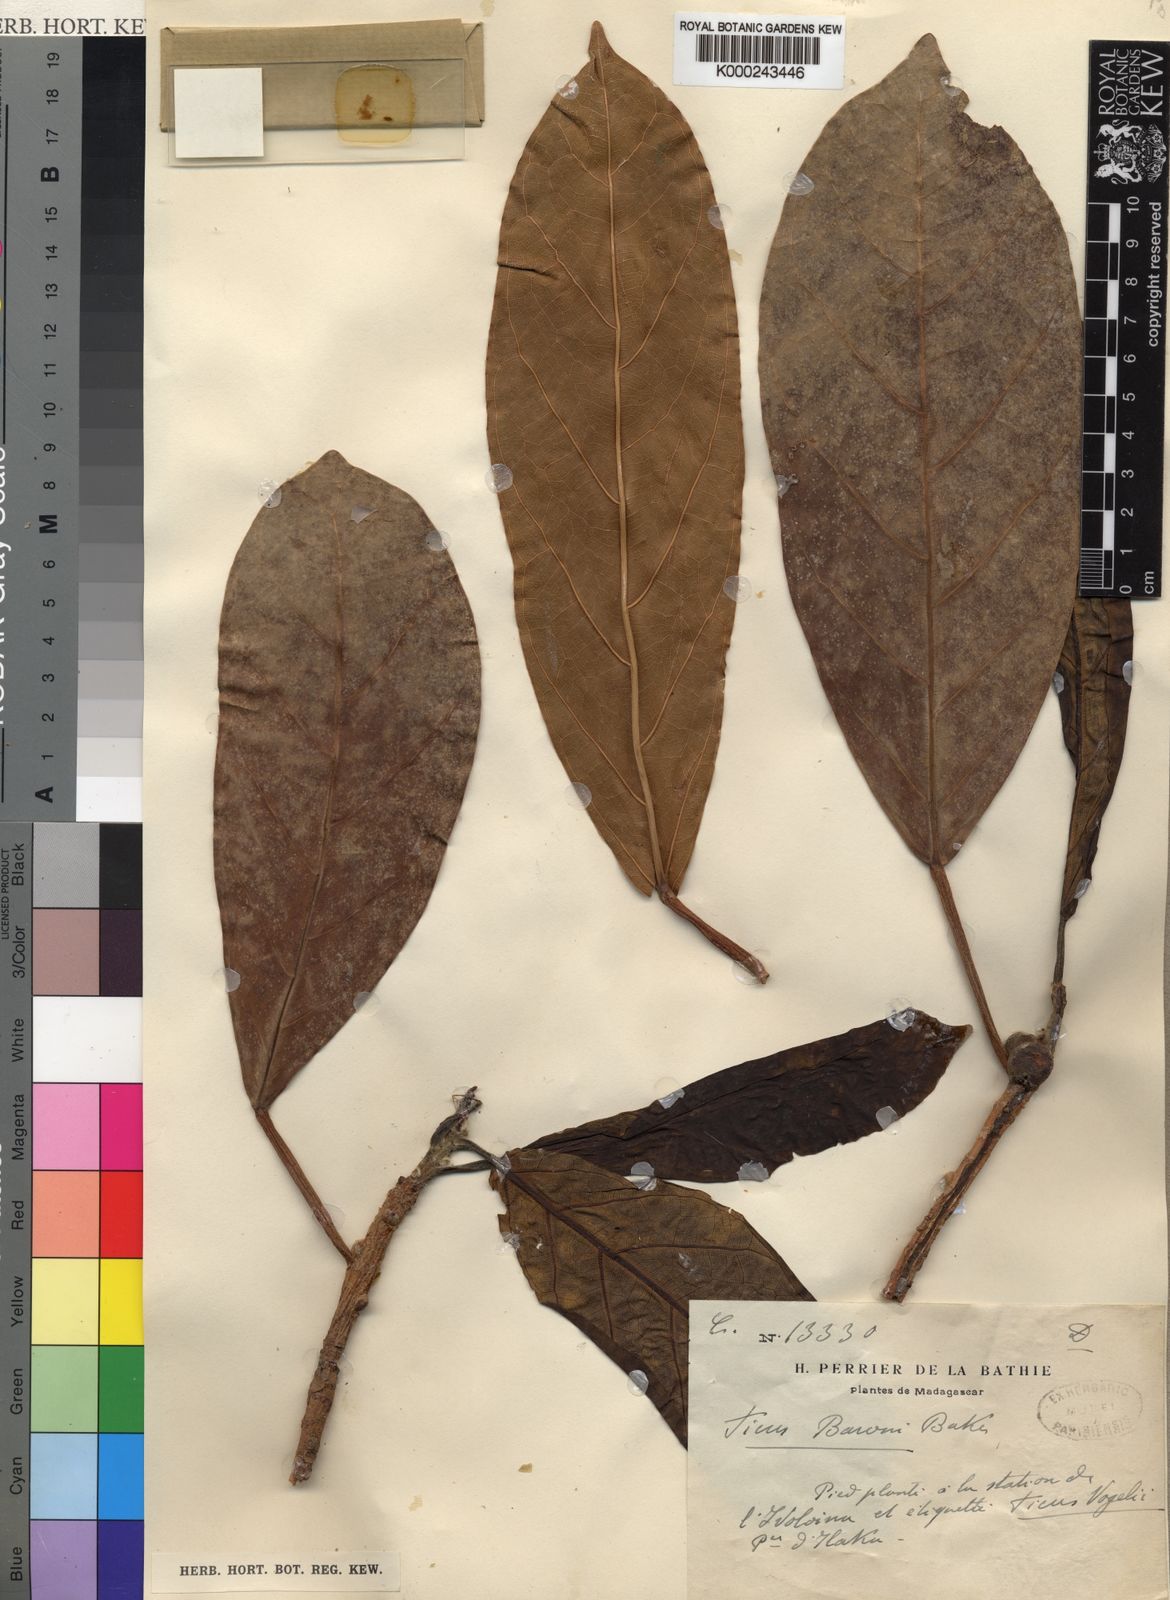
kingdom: Plantae
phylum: Tracheophyta
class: Magnoliopsida
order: Rosales
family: Moraceae
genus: Ficus
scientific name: Ficus lutea
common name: Giant-leaved fig
